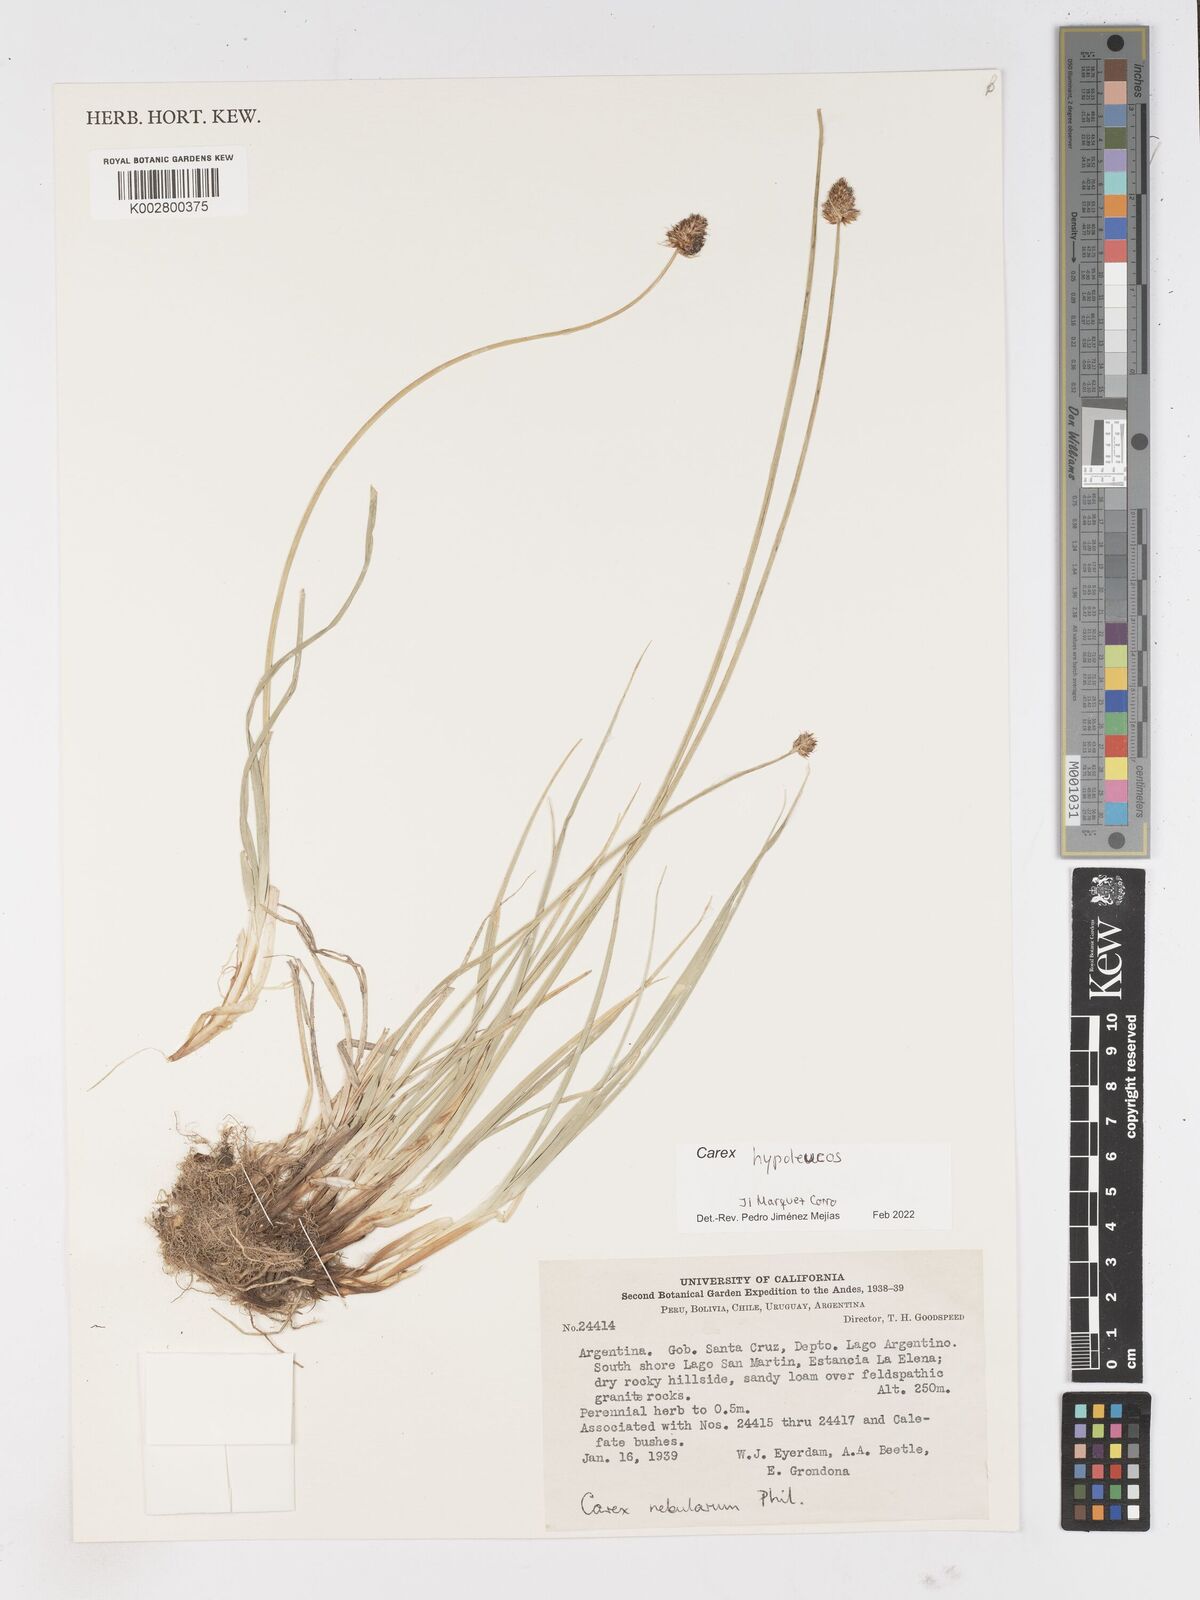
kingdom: Plantae
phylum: Tracheophyta
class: Liliopsida
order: Poales
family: Cyperaceae
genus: Carex
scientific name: Carex macrorrhiza
